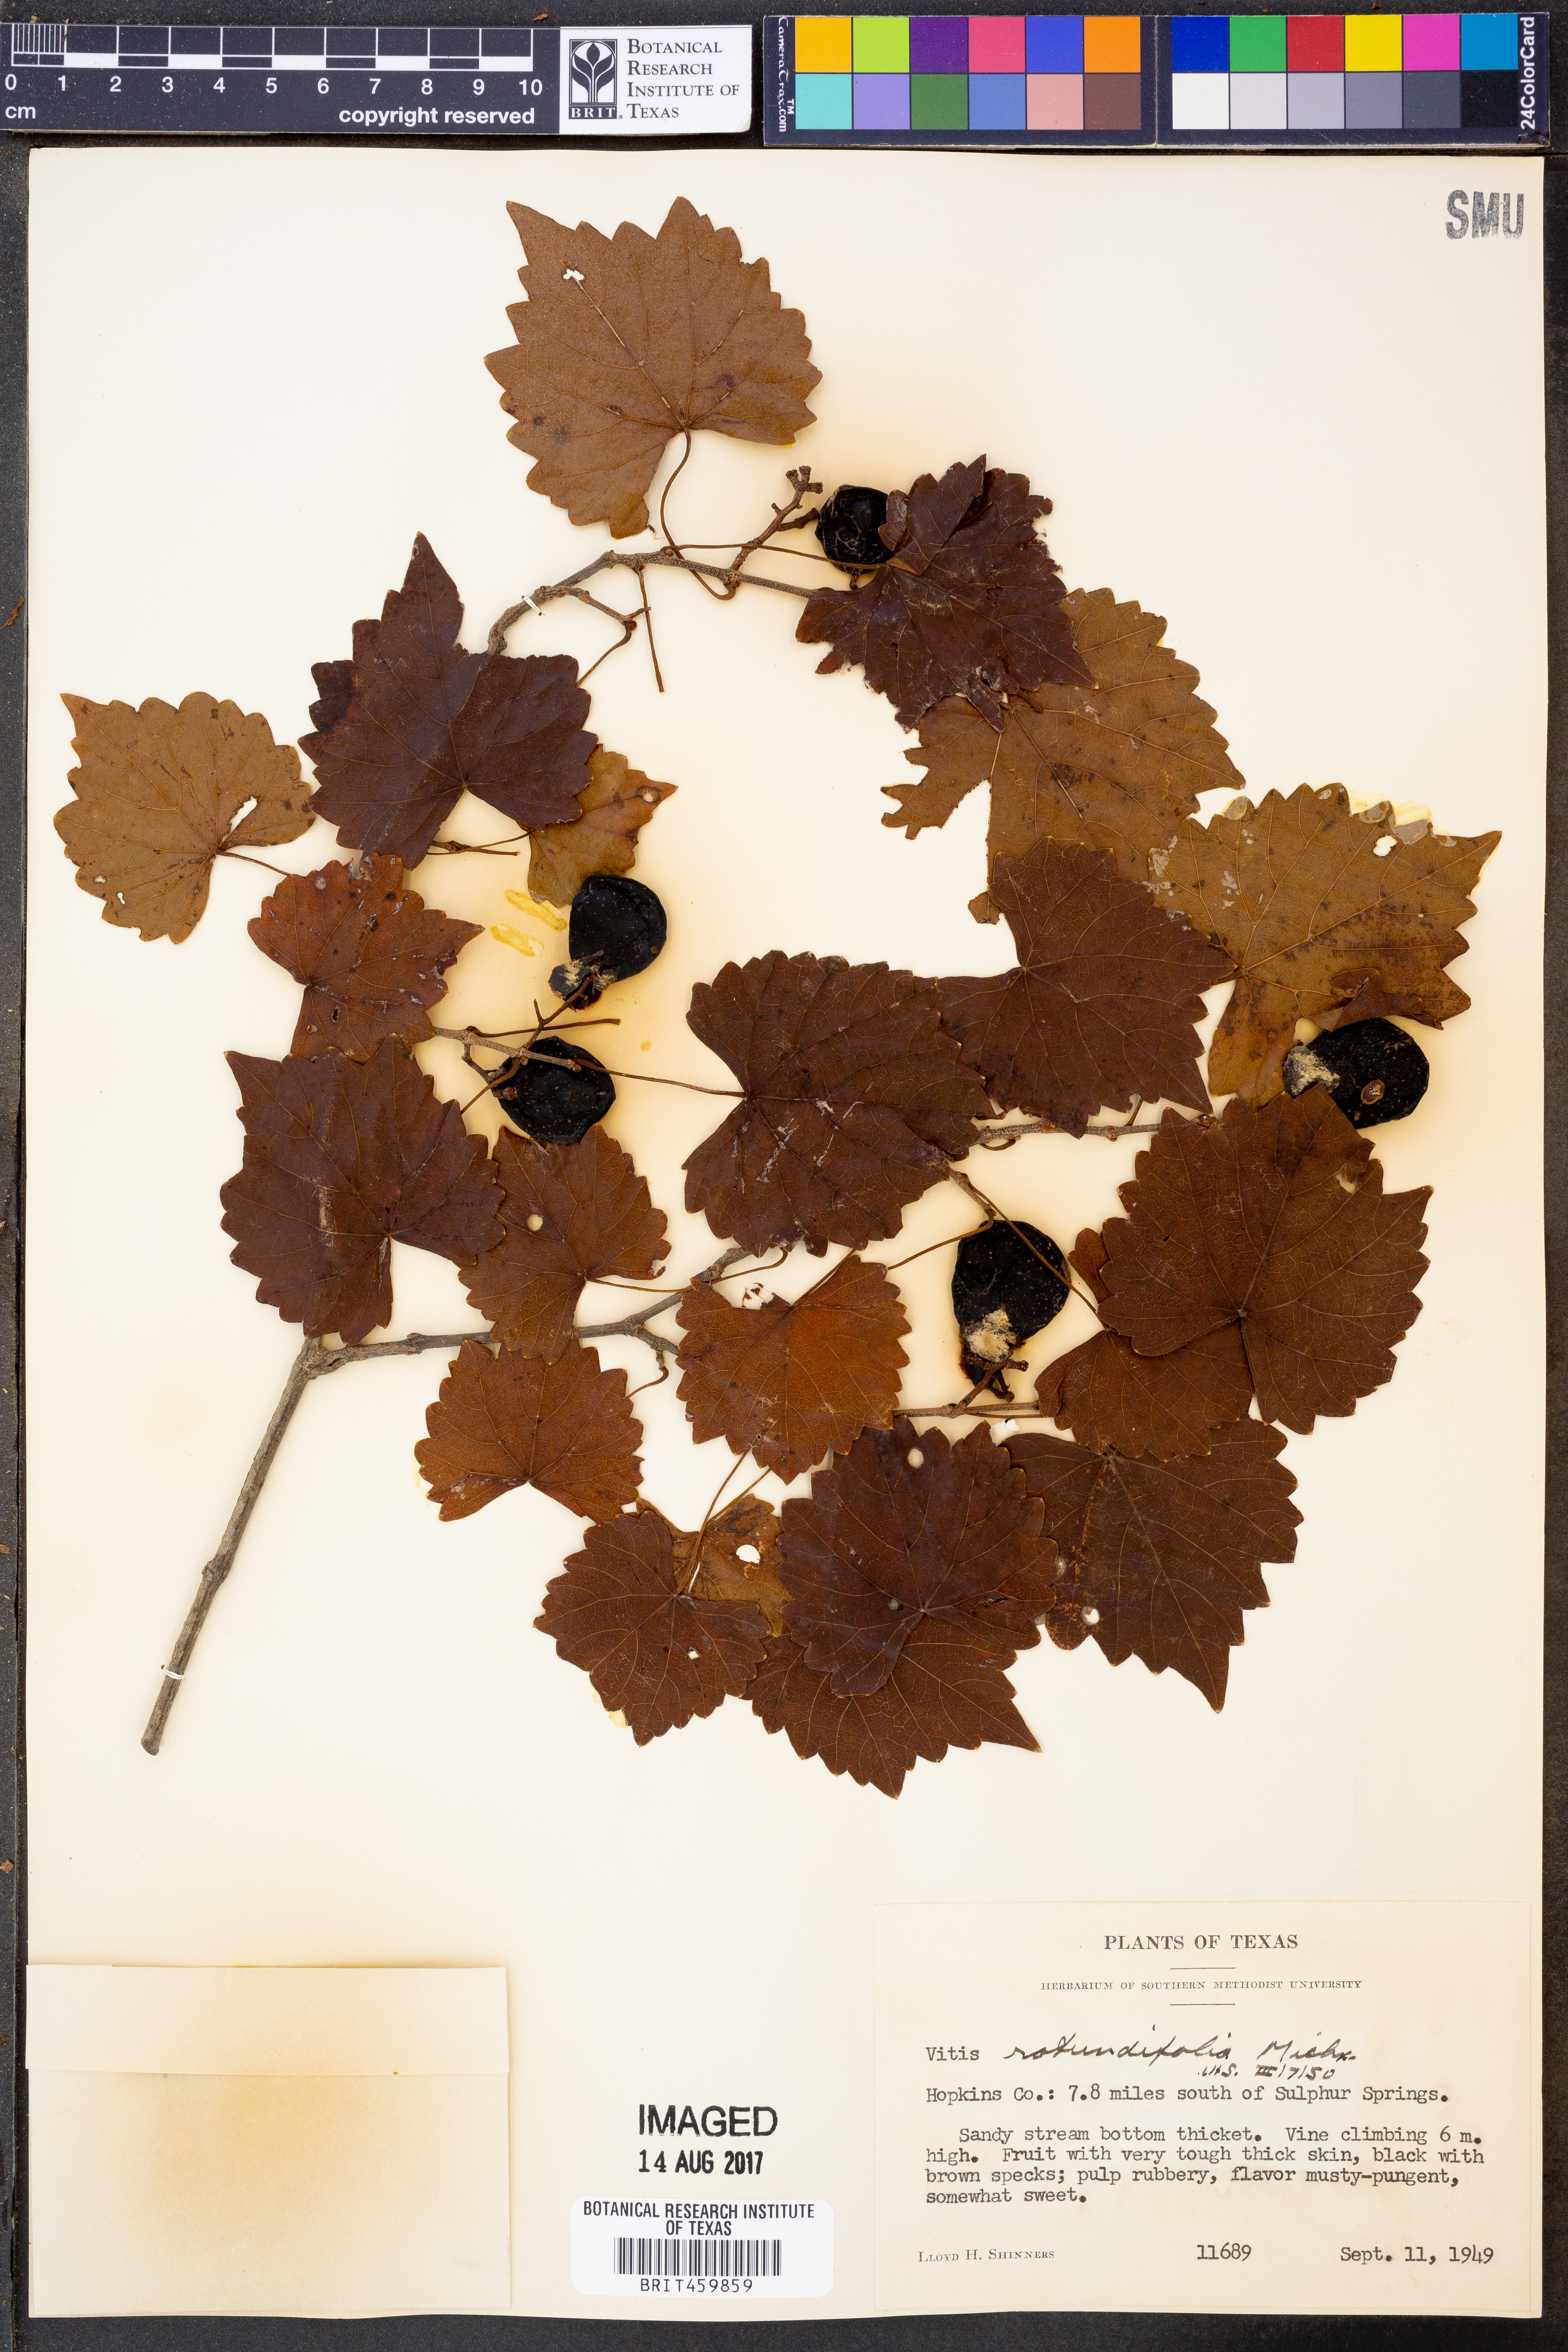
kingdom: Plantae
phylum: Tracheophyta
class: Magnoliopsida
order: Vitales
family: Vitaceae
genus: Vitis
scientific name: Vitis rotundifolia
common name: Muscadine grape
